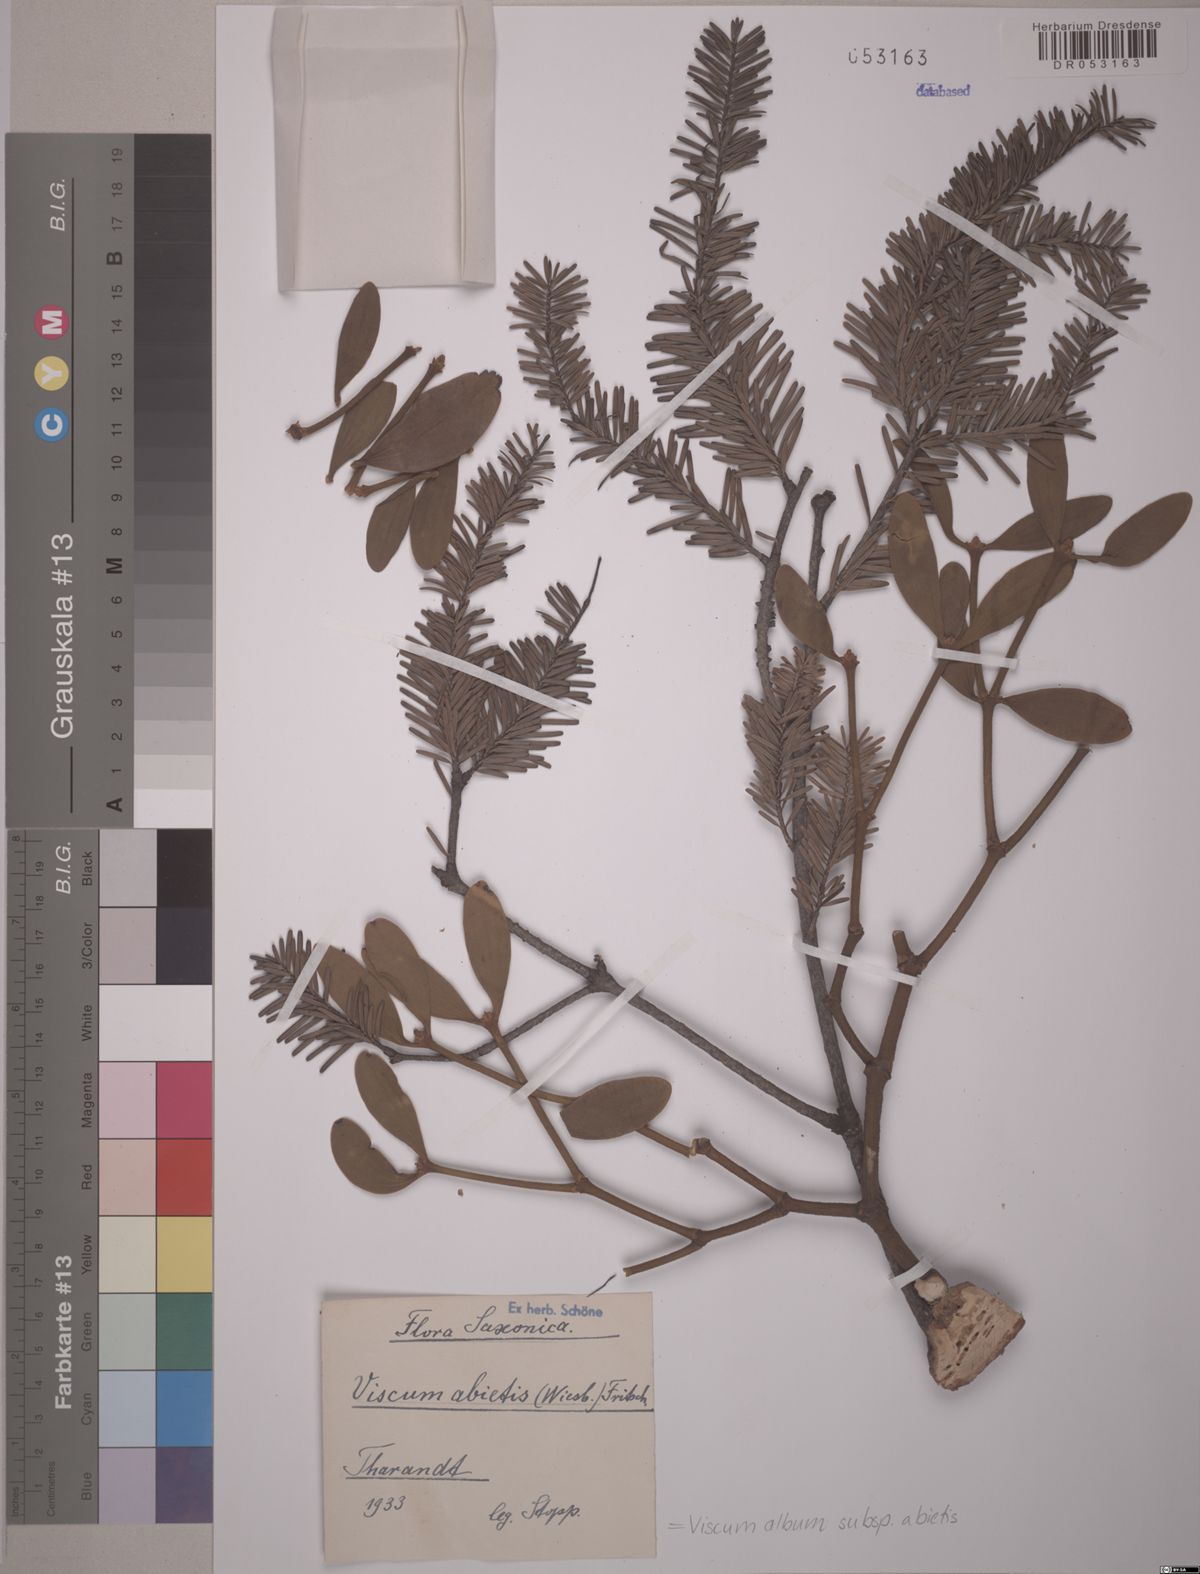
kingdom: Plantae
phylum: Tracheophyta
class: Magnoliopsida
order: Santalales
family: Viscaceae
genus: Viscum
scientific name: Viscum album
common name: Mistletoe
